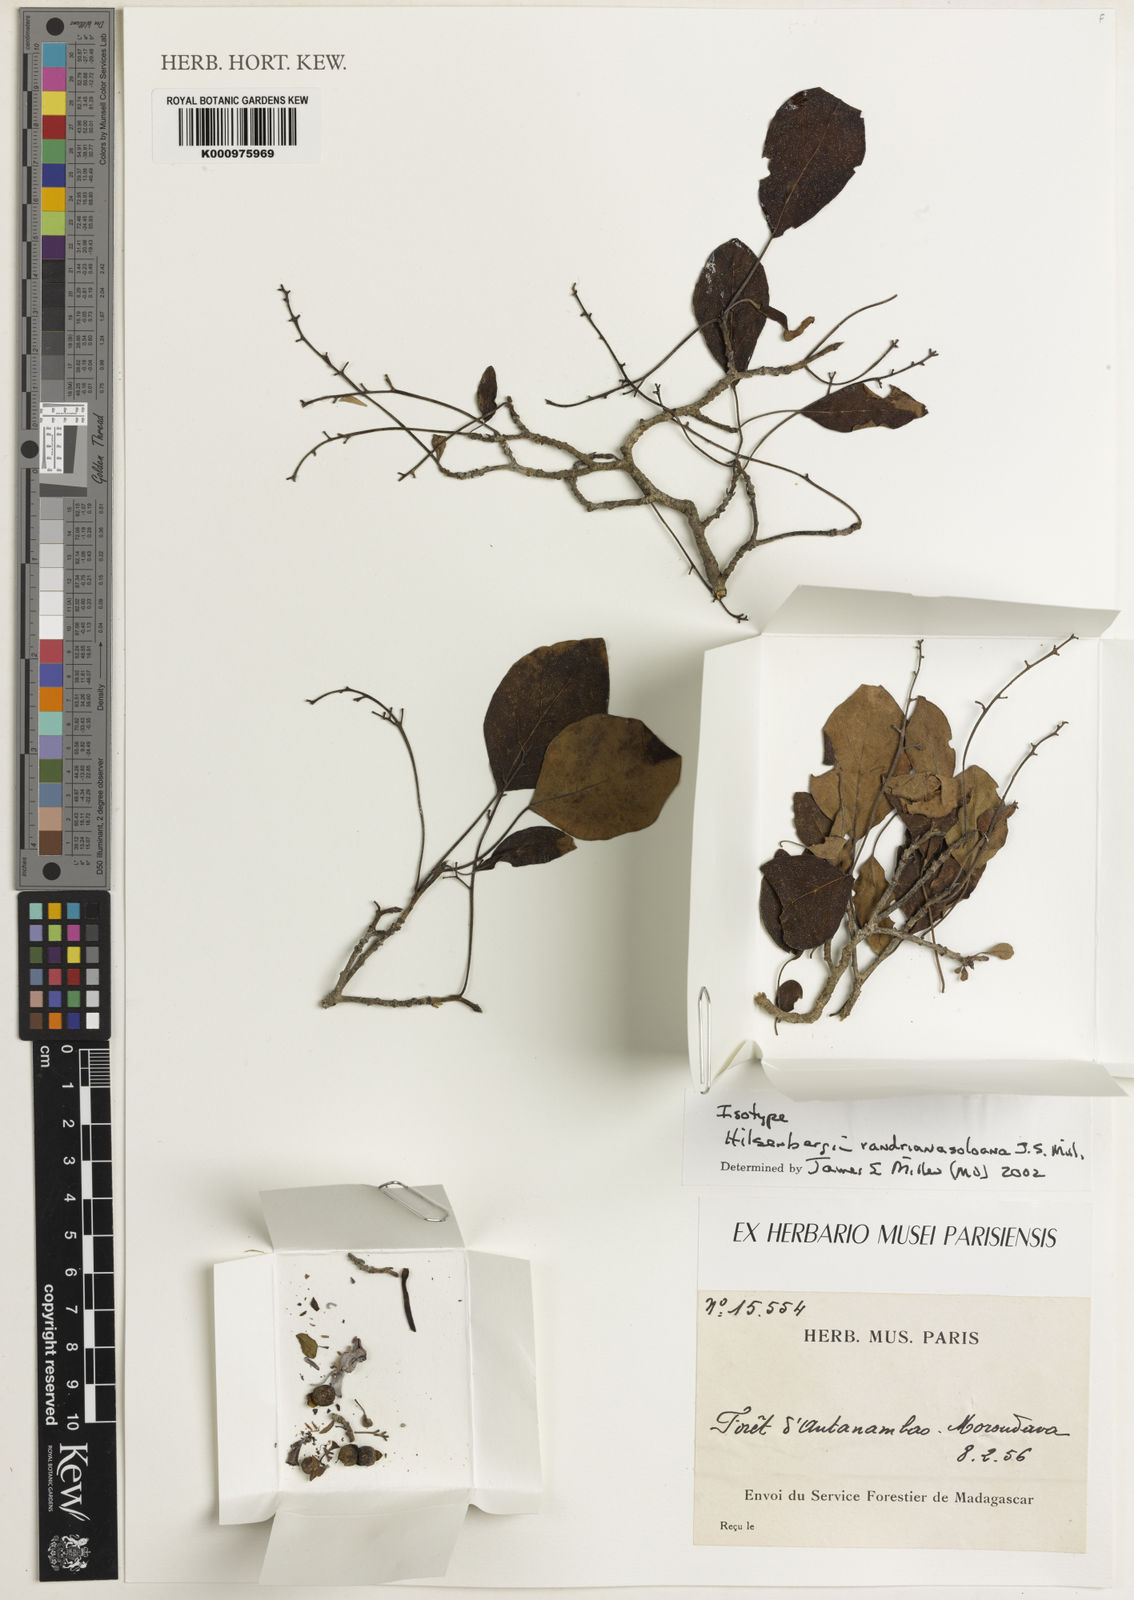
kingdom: Plantae
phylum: Tracheophyta
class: Magnoliopsida
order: Boraginales
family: Ehretiaceae
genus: Bourreria
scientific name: Bourreria randrianasoloana
